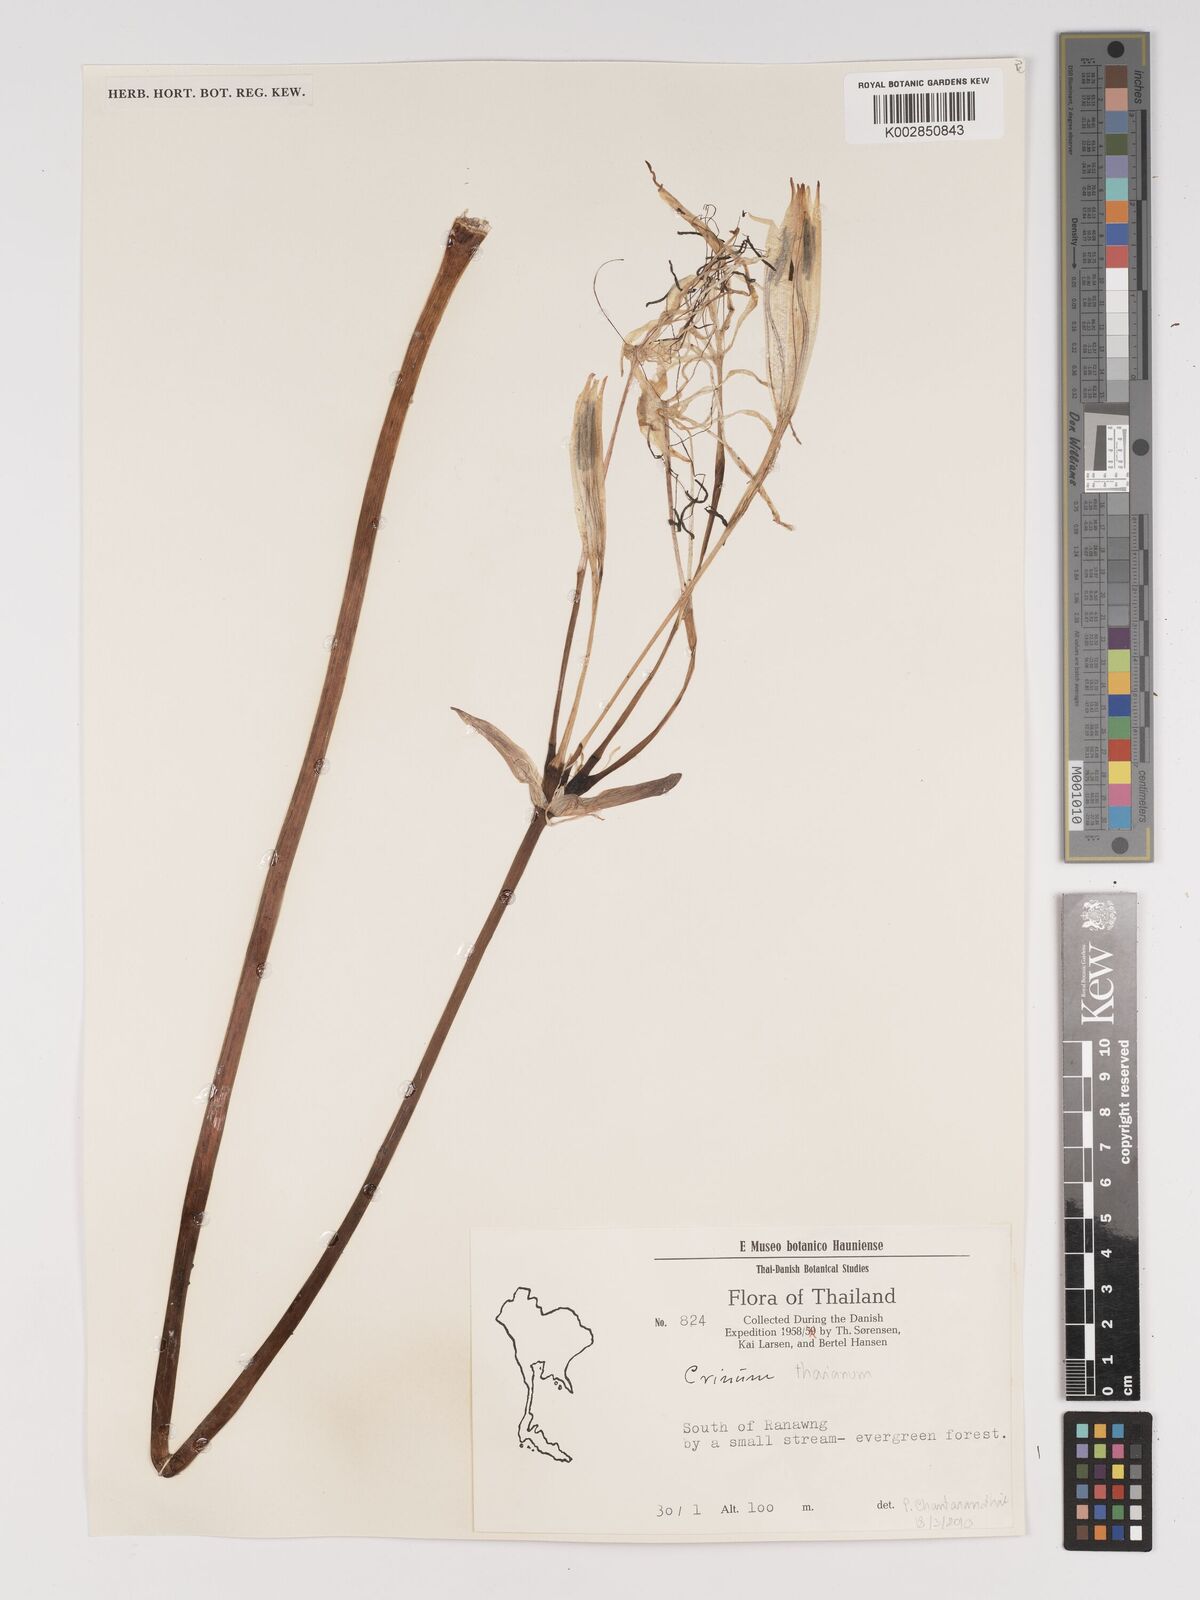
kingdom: Plantae
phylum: Tracheophyta
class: Liliopsida
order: Asparagales
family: Amaryllidaceae
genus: Crinum
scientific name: Crinum
